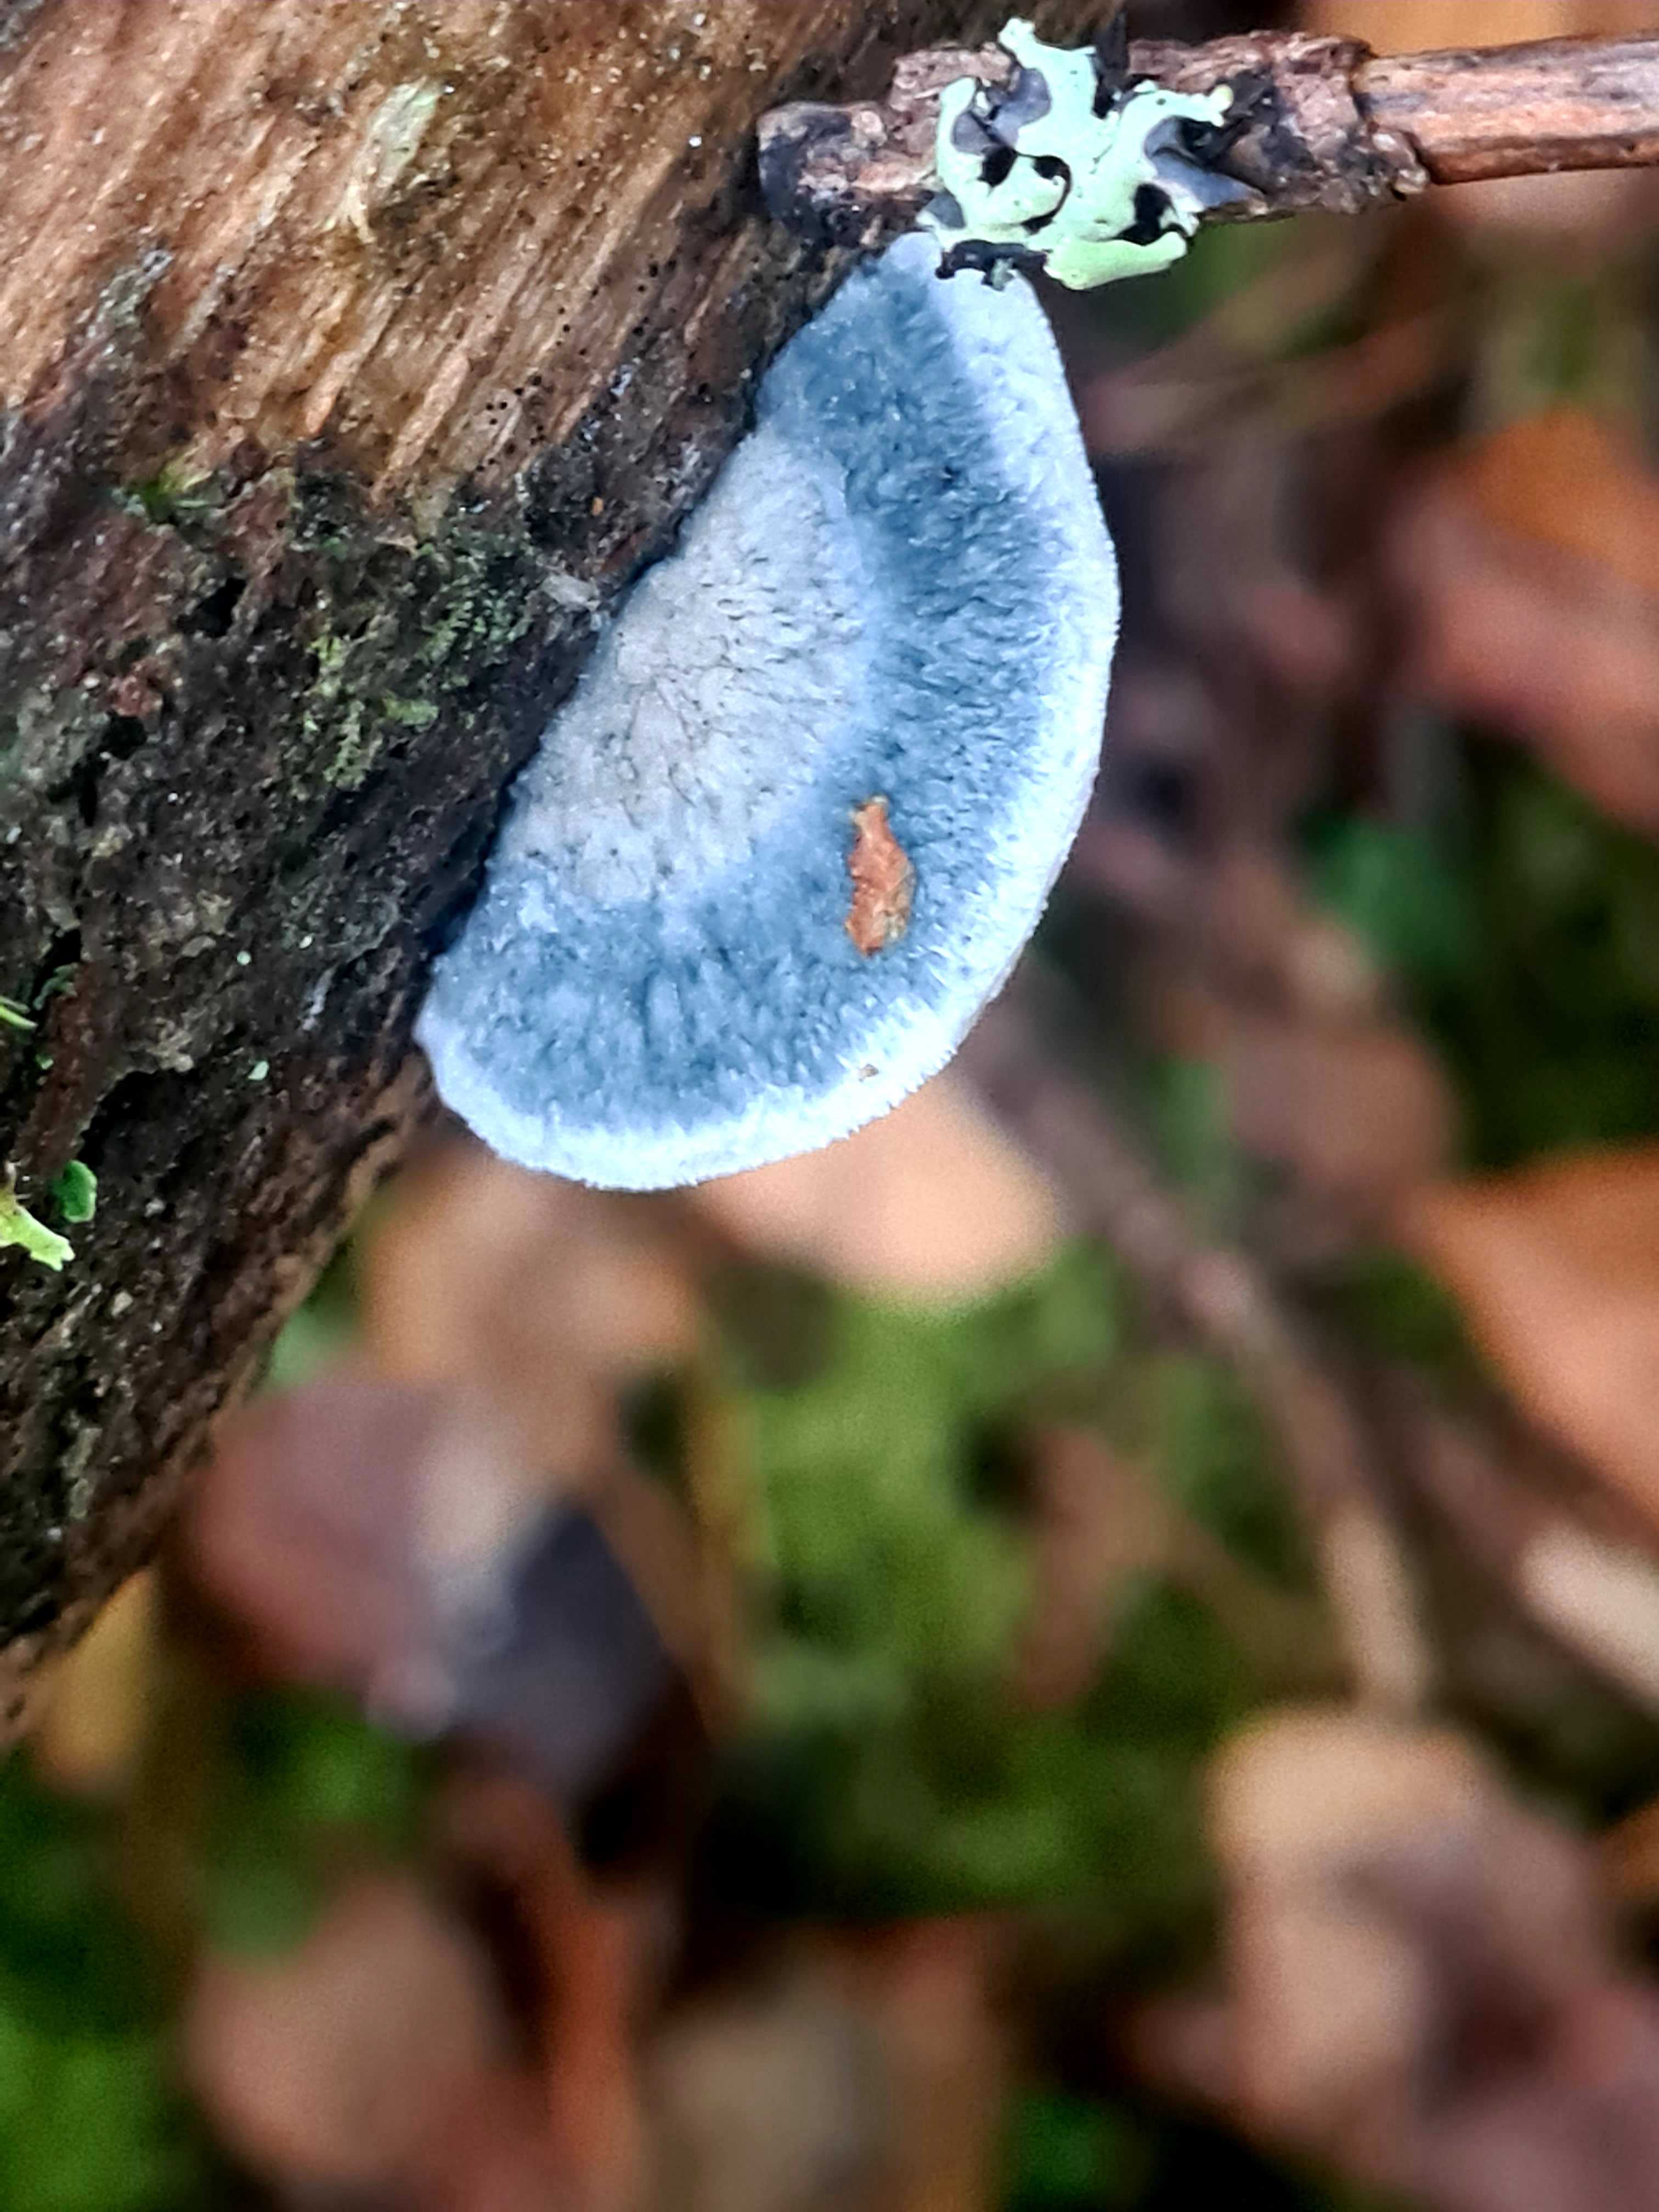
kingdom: Fungi
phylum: Basidiomycota
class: Agaricomycetes
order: Polyporales
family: Polyporaceae
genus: Cyanosporus
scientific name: Cyanosporus caesius
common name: blålig kødporesvamp
